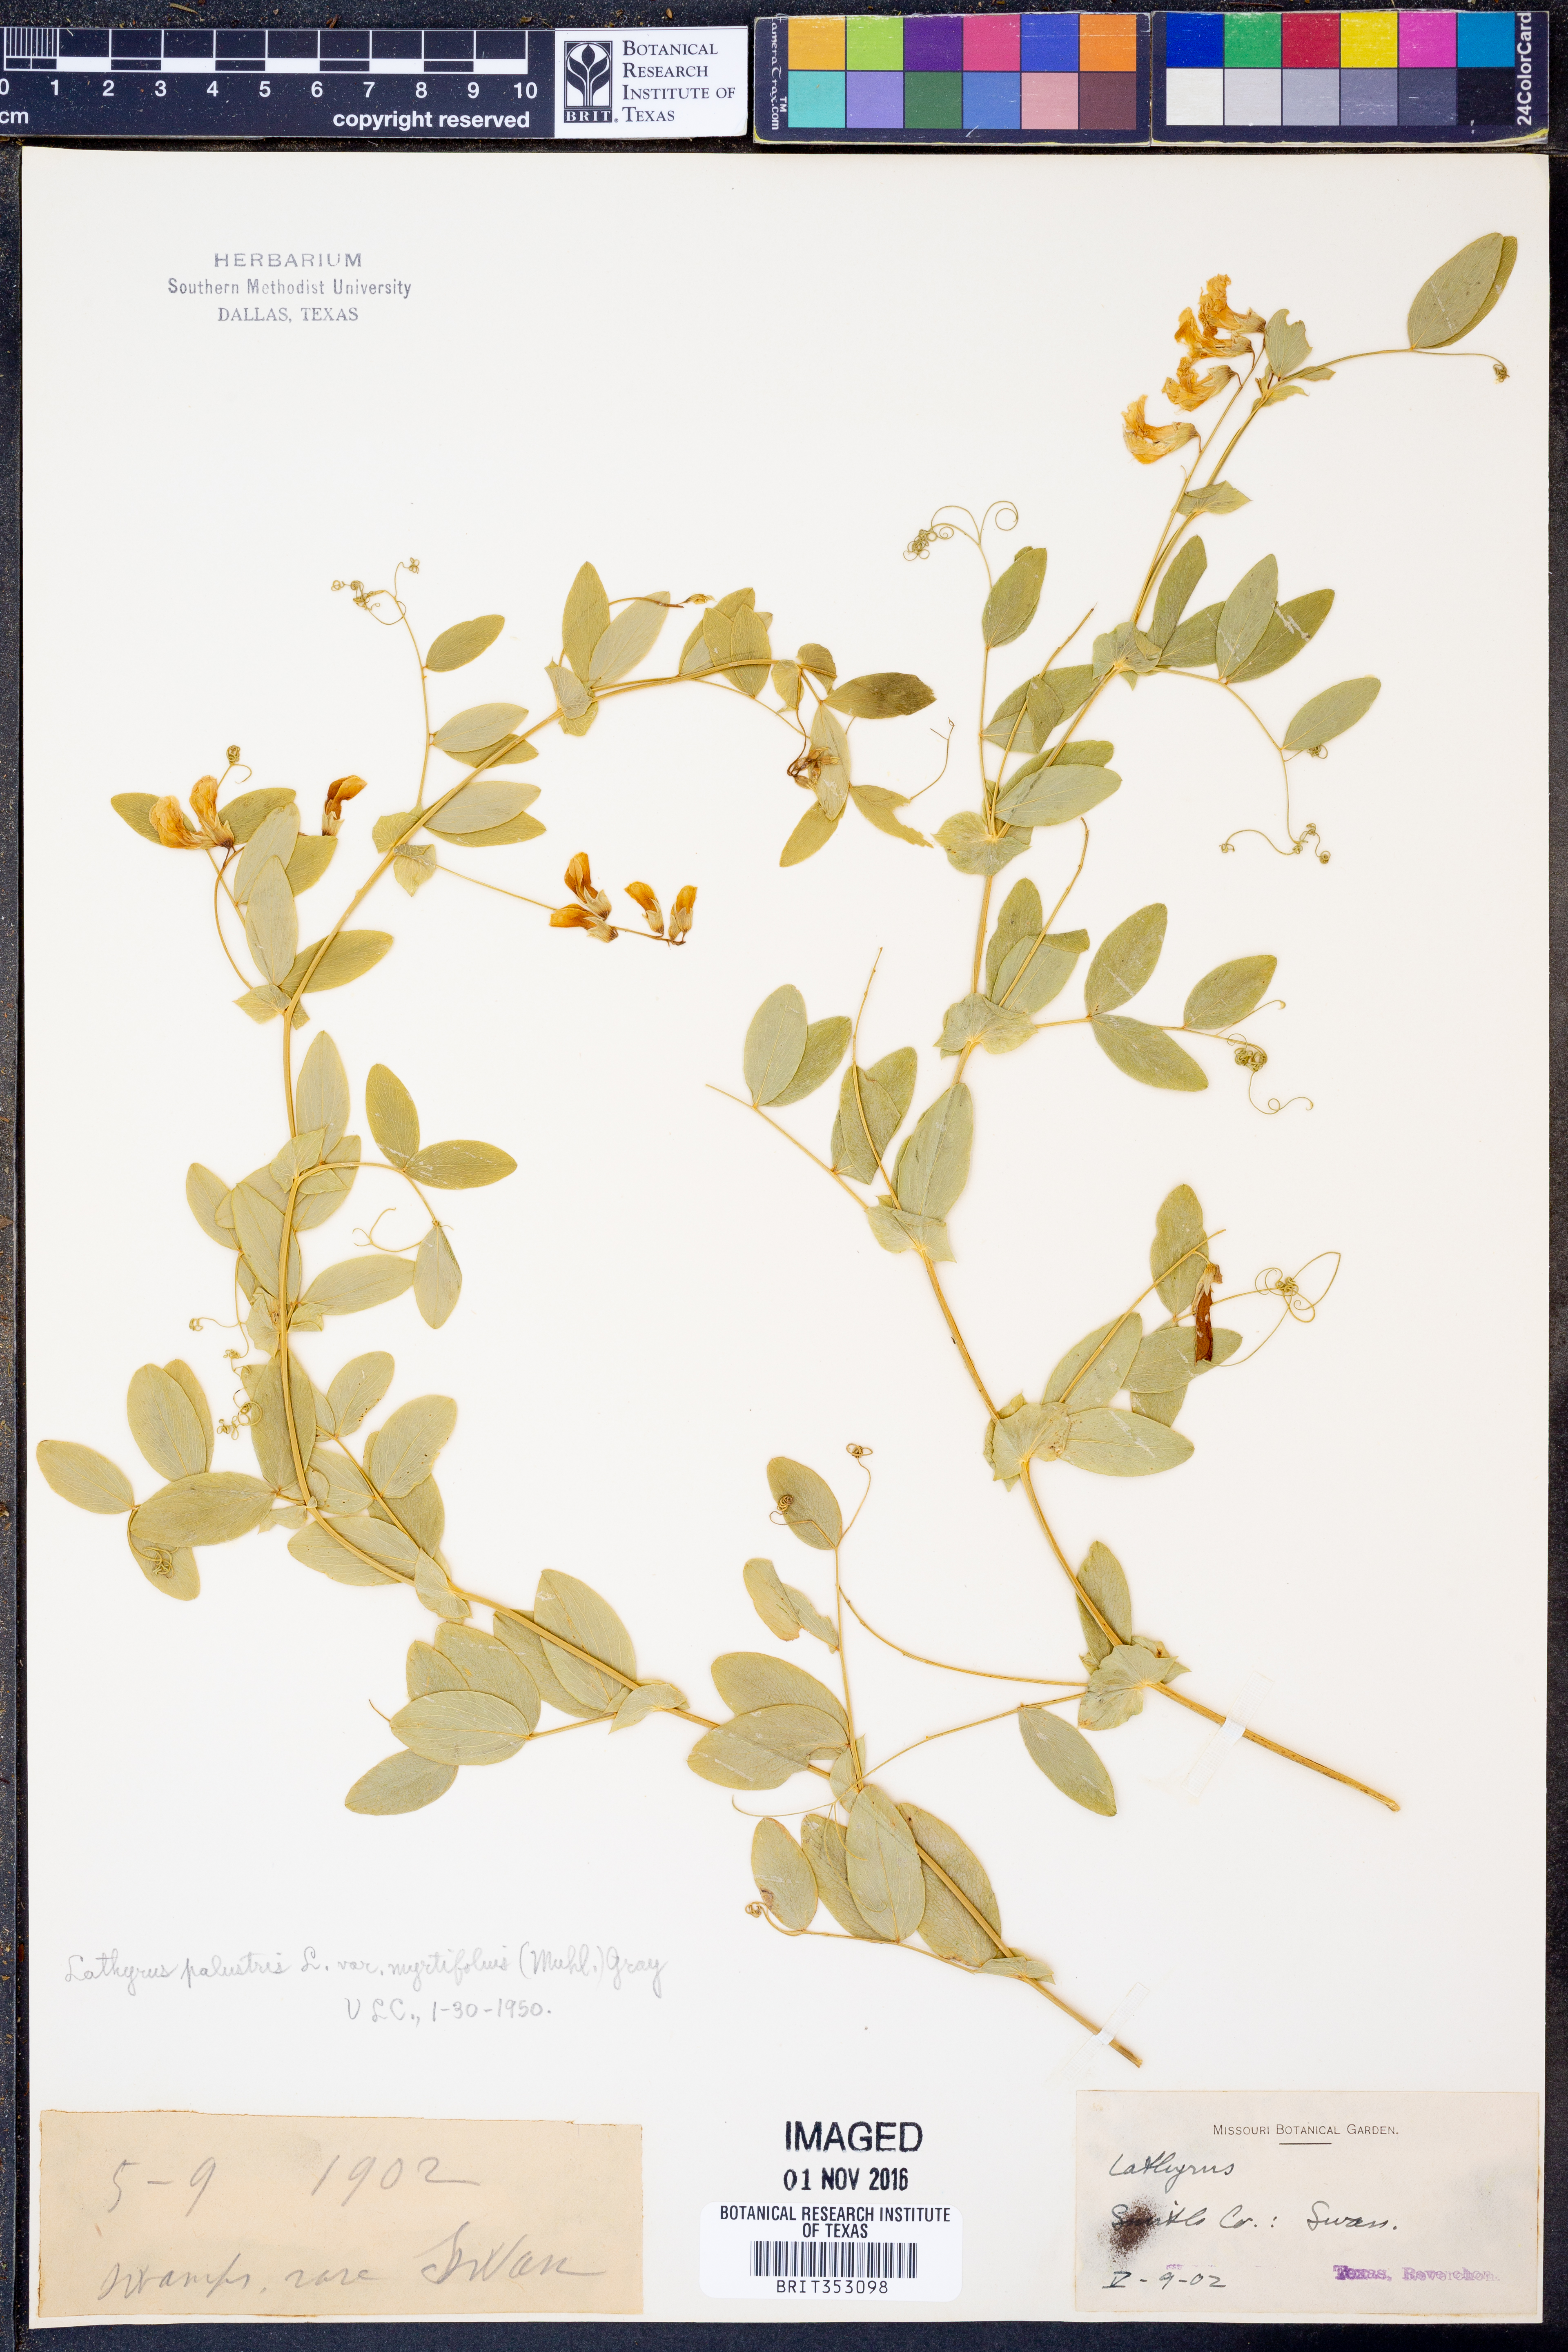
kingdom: Plantae
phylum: Tracheophyta
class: Magnoliopsida
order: Fabales
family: Fabaceae
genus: Lathyrus
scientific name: Lathyrus palustris
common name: Marsh pea
